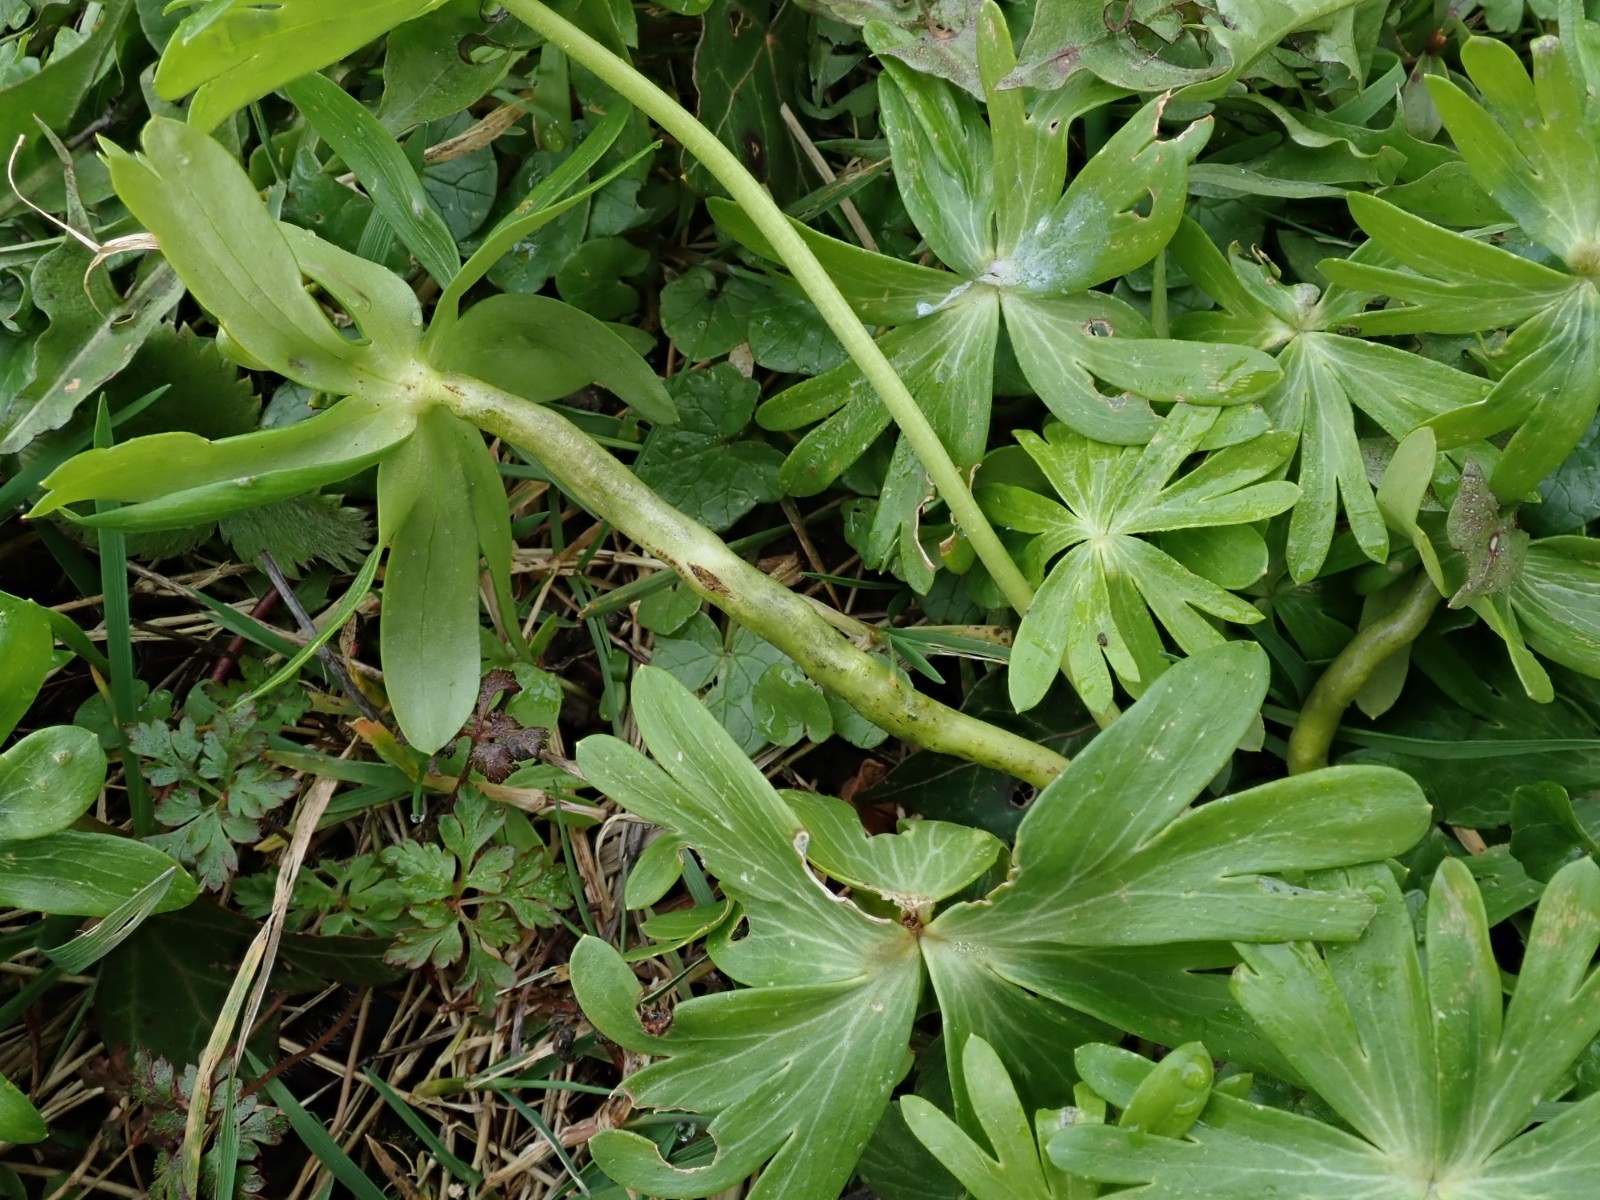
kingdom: Fungi
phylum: Basidiomycota
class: Ustilaginomycetes
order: Urocystidales
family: Urocystidaceae
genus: Urocystis
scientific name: Urocystis eranthidis
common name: erantis-brand
